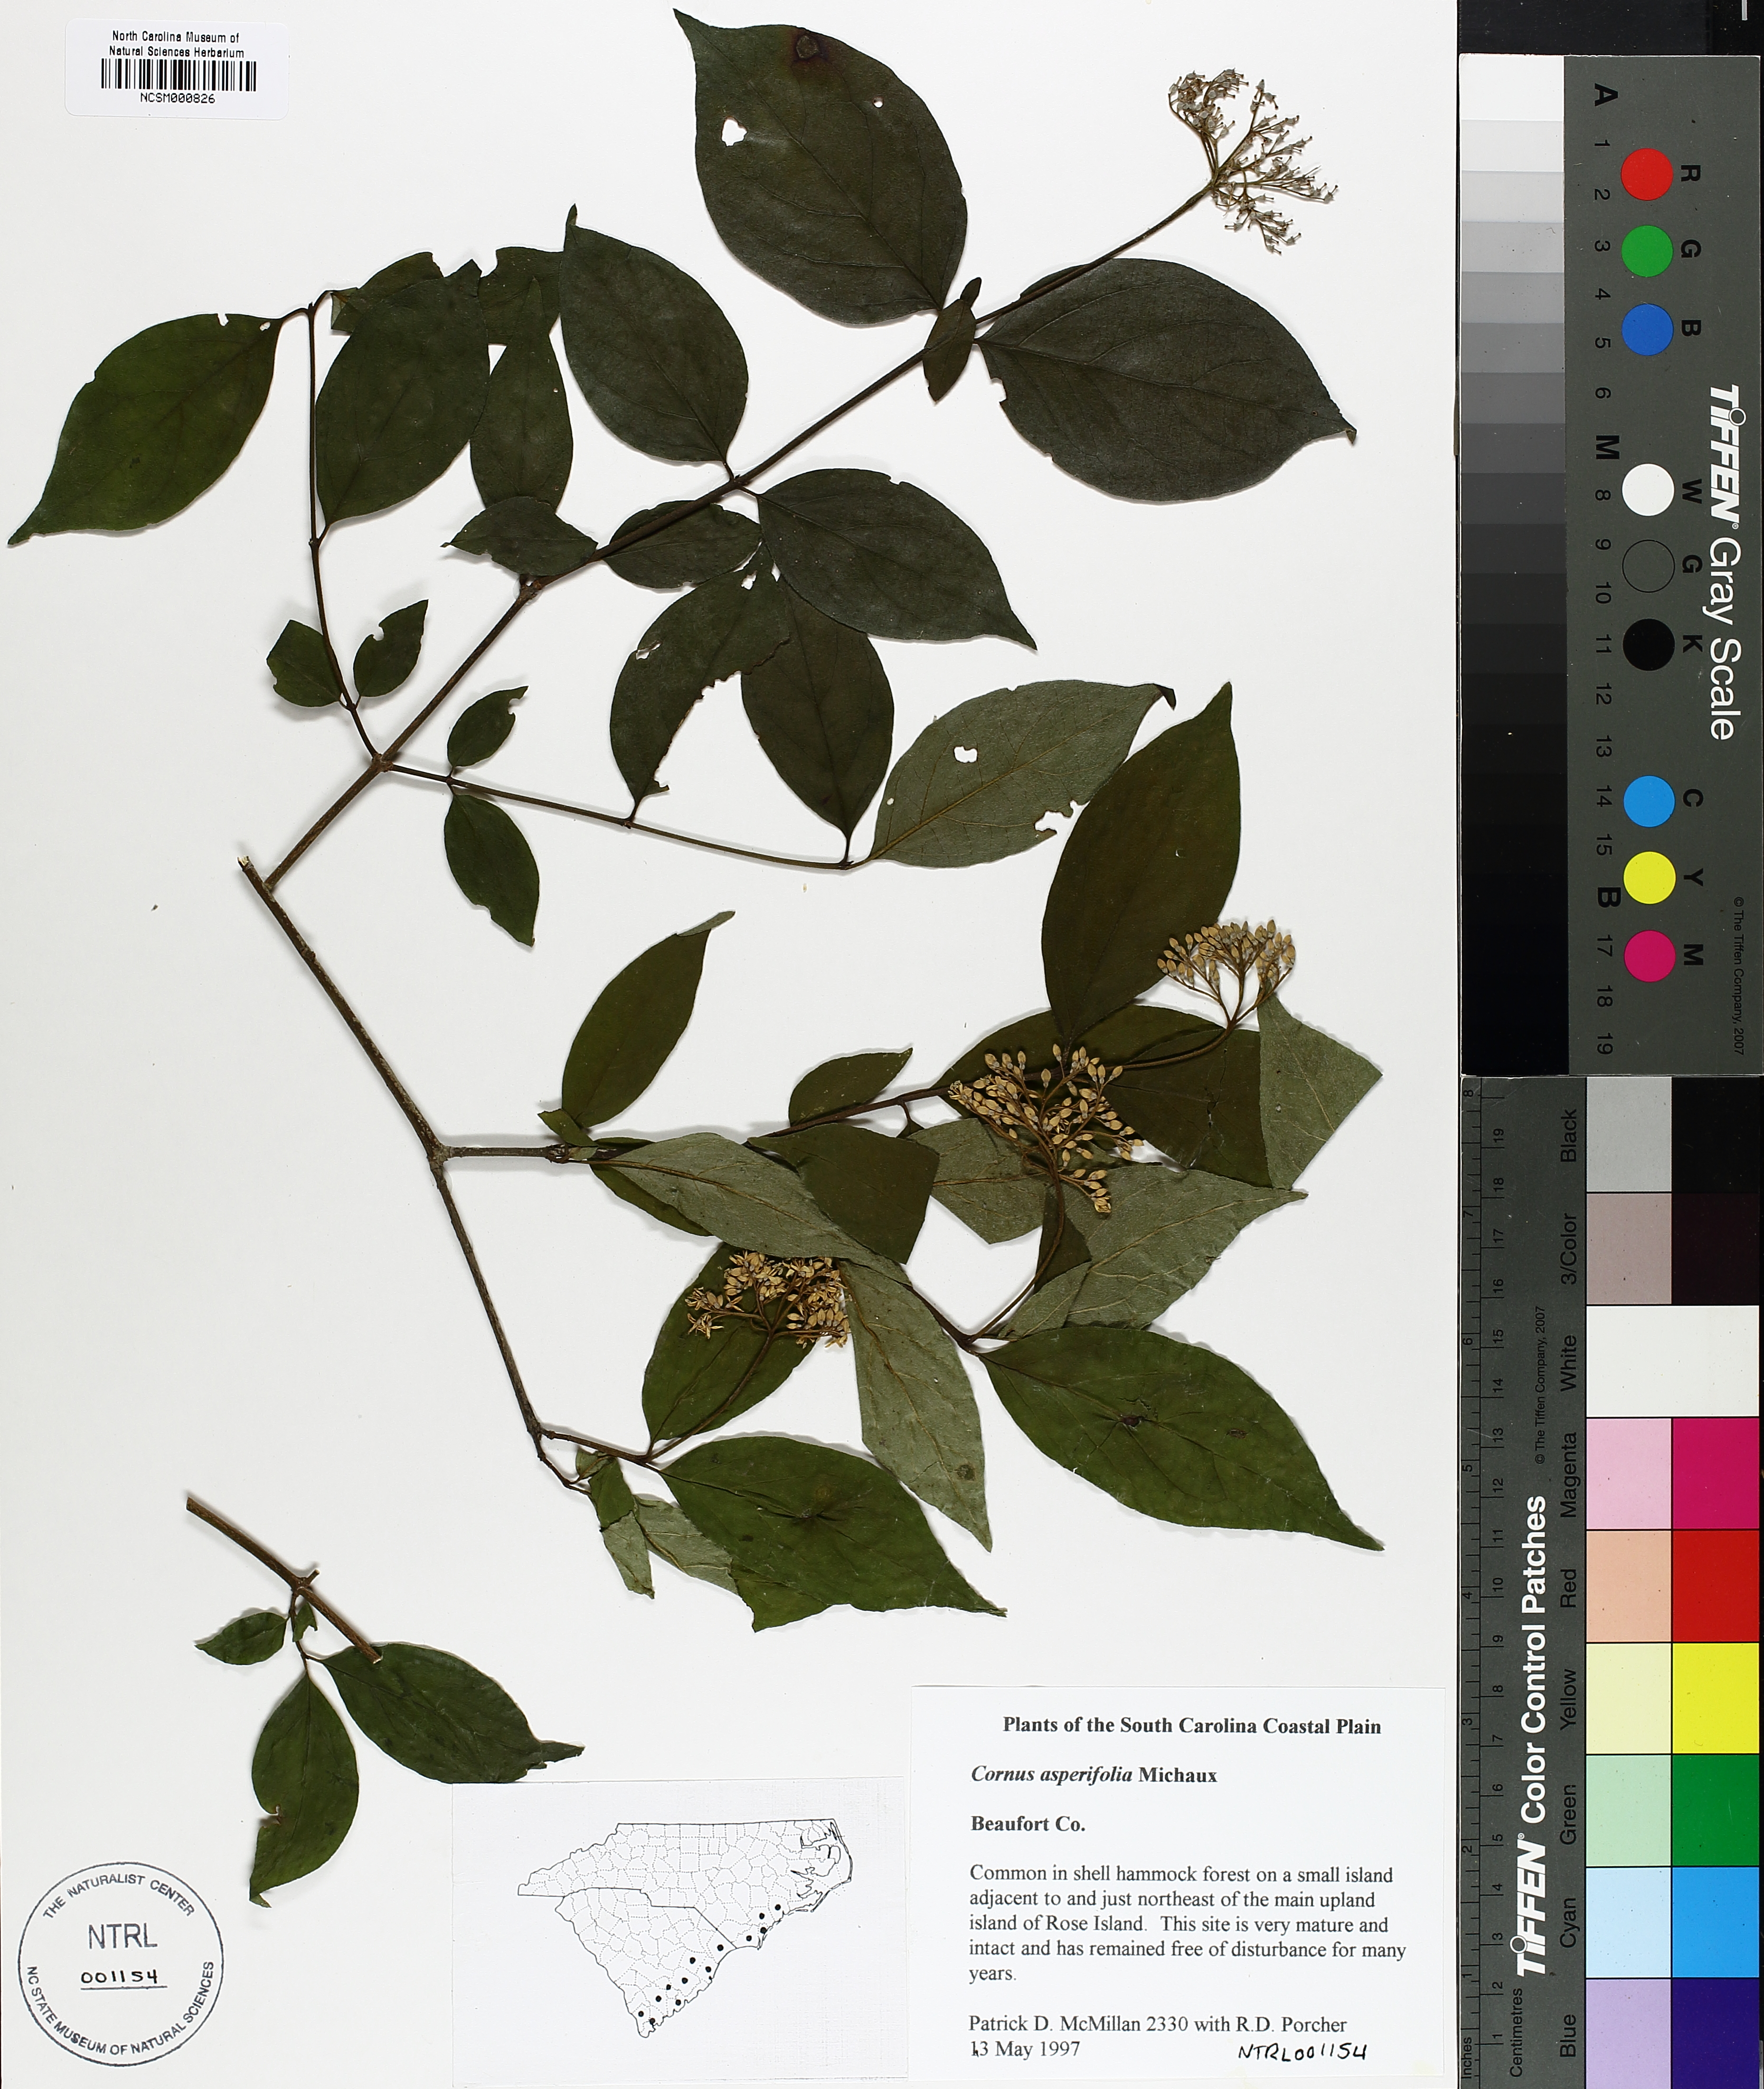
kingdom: Plantae
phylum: Tracheophyta
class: Magnoliopsida
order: Cornales
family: Cornaceae
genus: Cornus
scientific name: Cornus asperifolia
